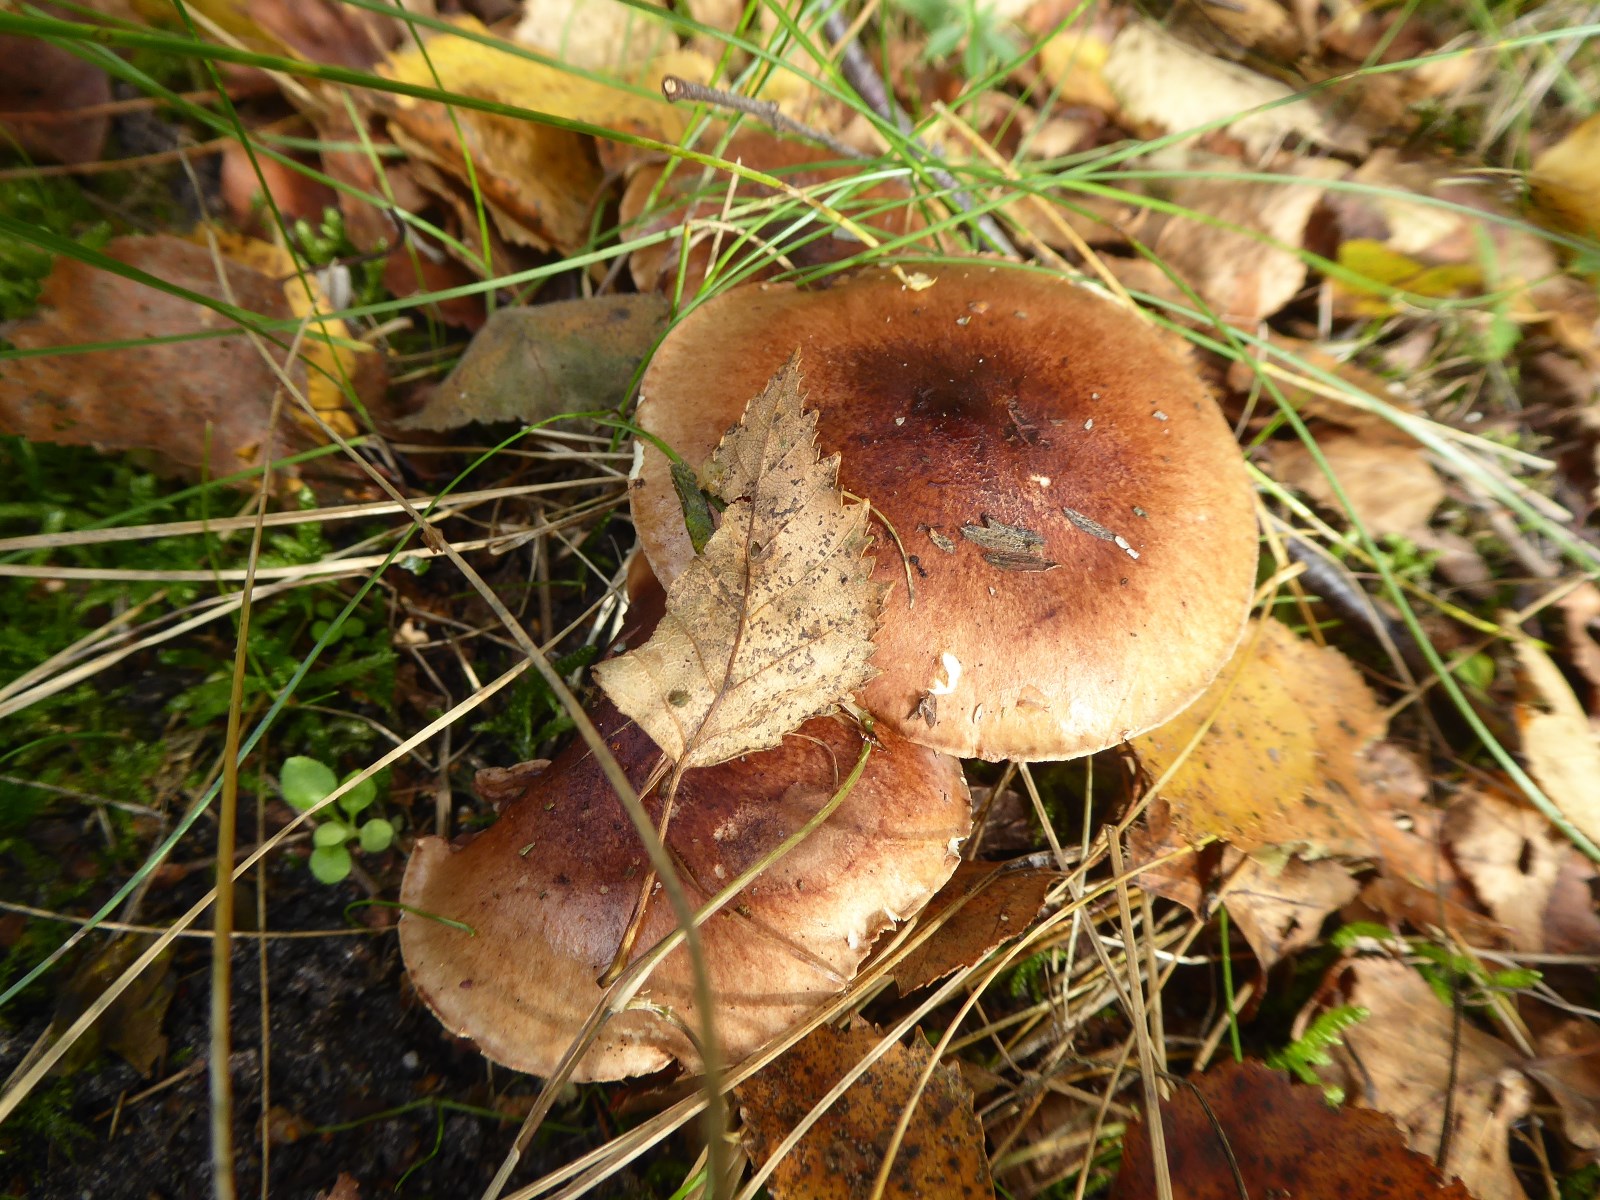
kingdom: Fungi
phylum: Basidiomycota
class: Agaricomycetes
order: Agaricales
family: Tricholomataceae
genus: Tricholoma
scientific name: Tricholoma fulvum
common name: birke-ridderhat
